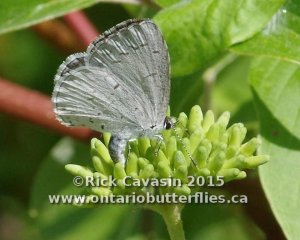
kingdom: Animalia
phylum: Arthropoda
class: Insecta
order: Lepidoptera
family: Lycaenidae
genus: Cyaniris
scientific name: Cyaniris neglecta
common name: Summer Azure
